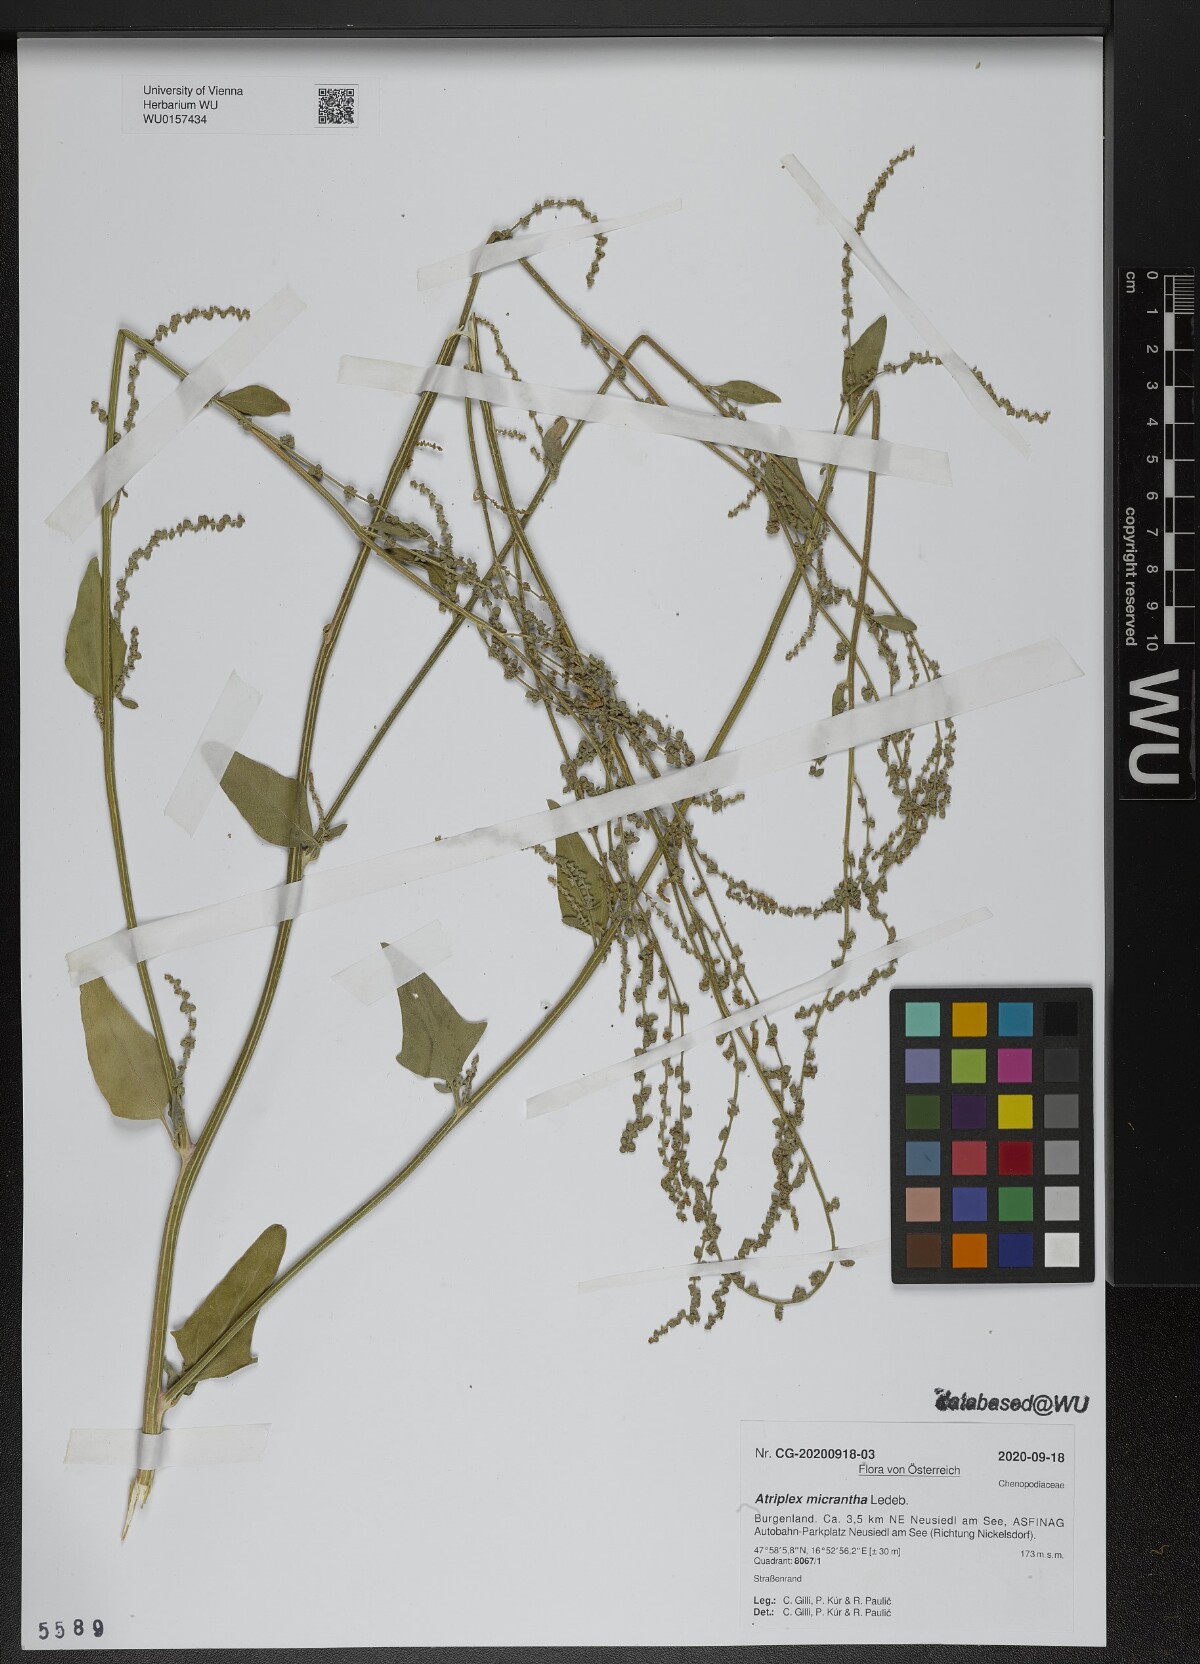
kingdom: Plantae
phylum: Tracheophyta
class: Magnoliopsida
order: Caryophyllales
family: Amaranthaceae
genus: Atriplex
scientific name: Atriplex micrantha
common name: Twoscale saltbush
